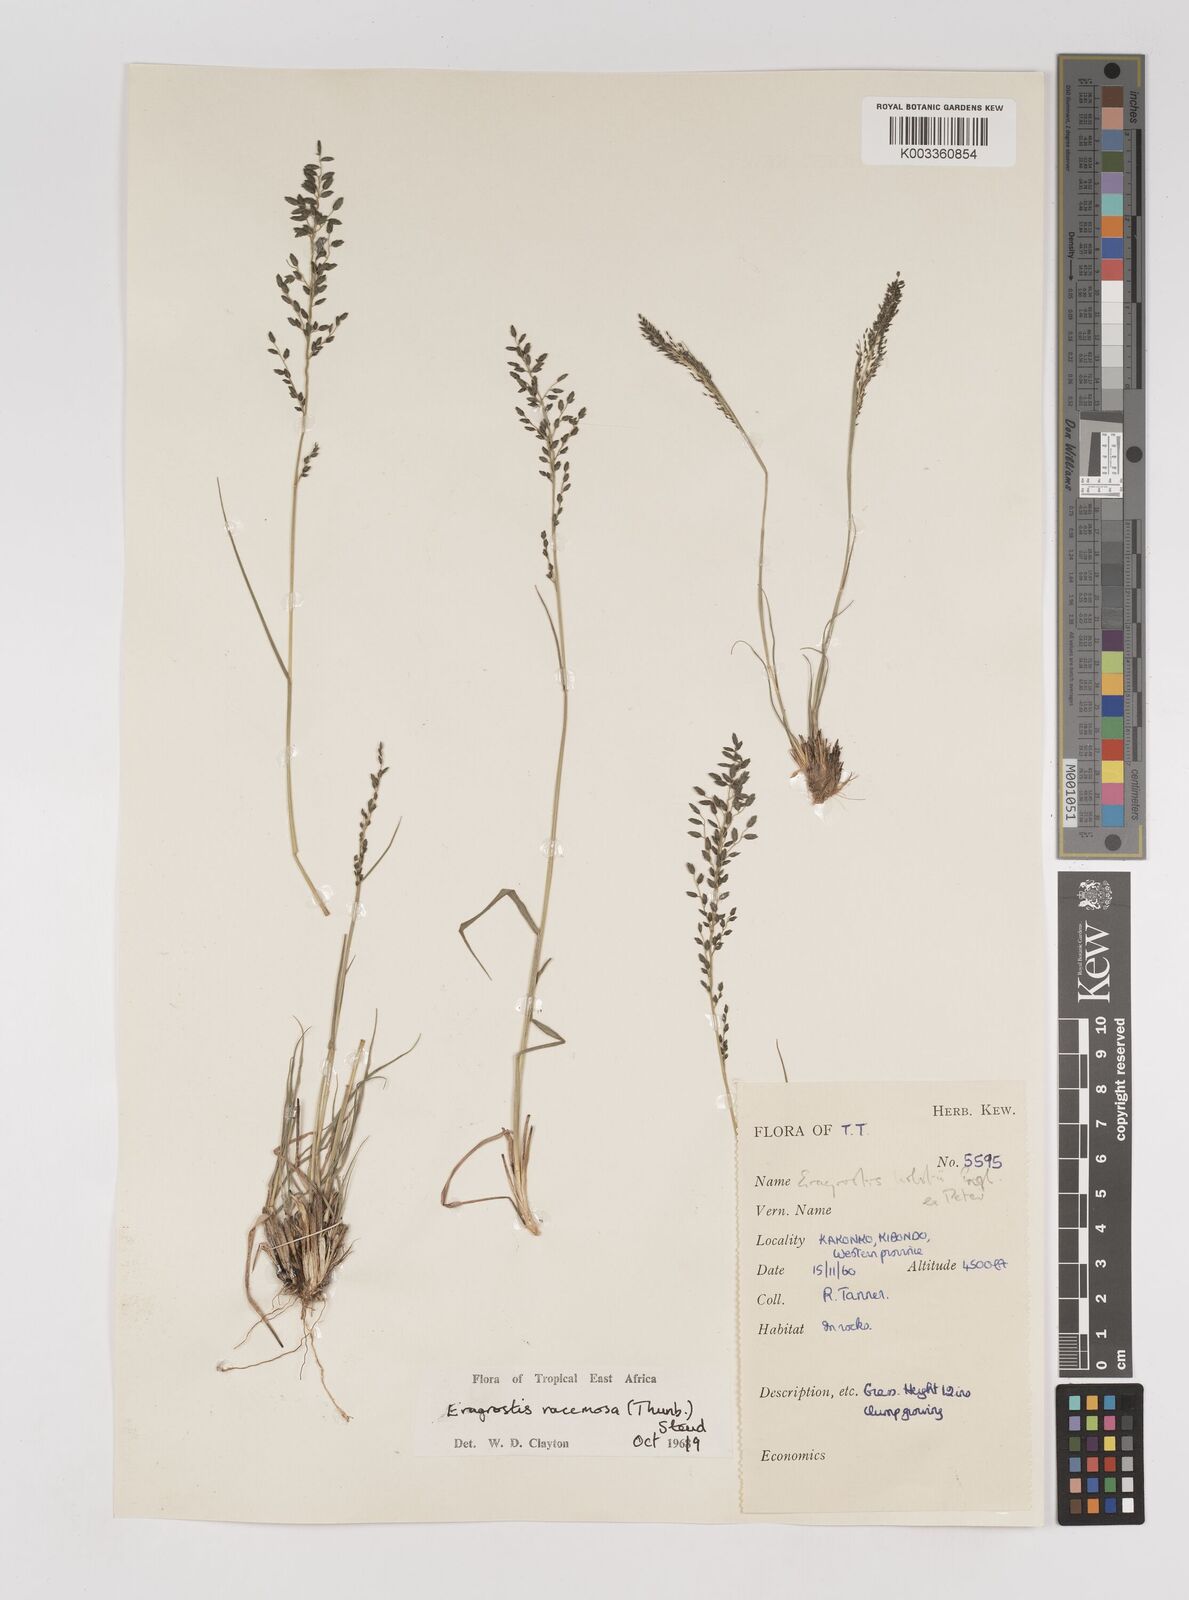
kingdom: Plantae
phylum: Tracheophyta
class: Liliopsida
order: Poales
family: Poaceae
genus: Eragrostis
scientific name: Eragrostis racemosa
